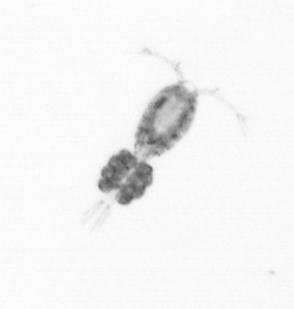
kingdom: Animalia
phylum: Arthropoda
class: Copepoda
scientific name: Copepoda
